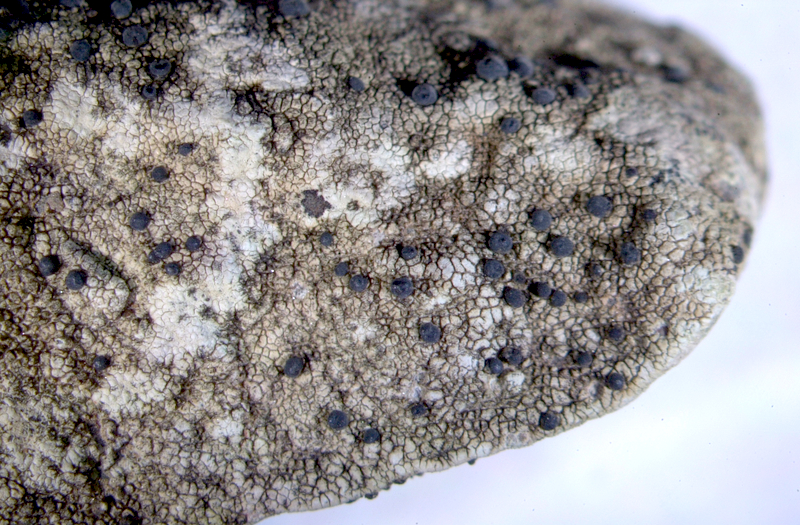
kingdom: Fungi
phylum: Ascomycota
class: Lecanoromycetes
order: Caliciales
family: Caliciaceae
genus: Buellia
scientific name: Buellia
